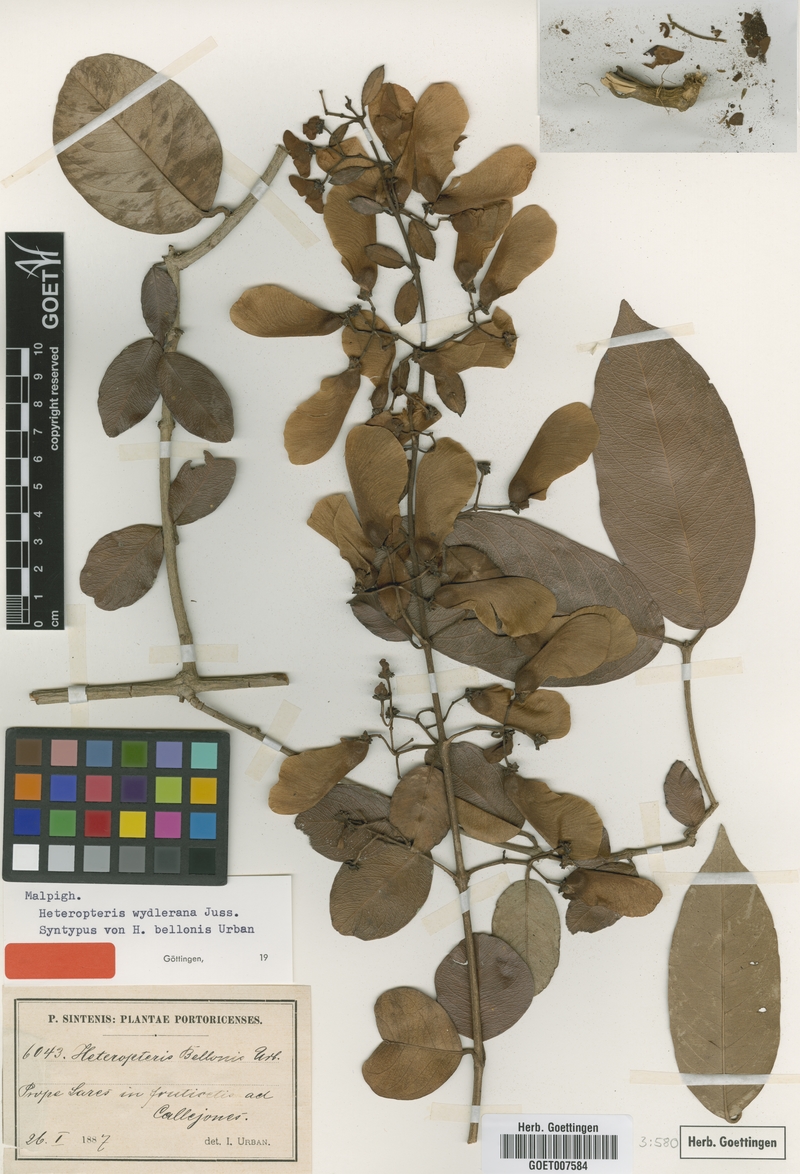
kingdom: Plantae
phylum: Tracheophyta
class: Magnoliopsida
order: Malpighiales
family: Malpighiaceae
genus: Heteropterys
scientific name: Heteropterys wydleriana
